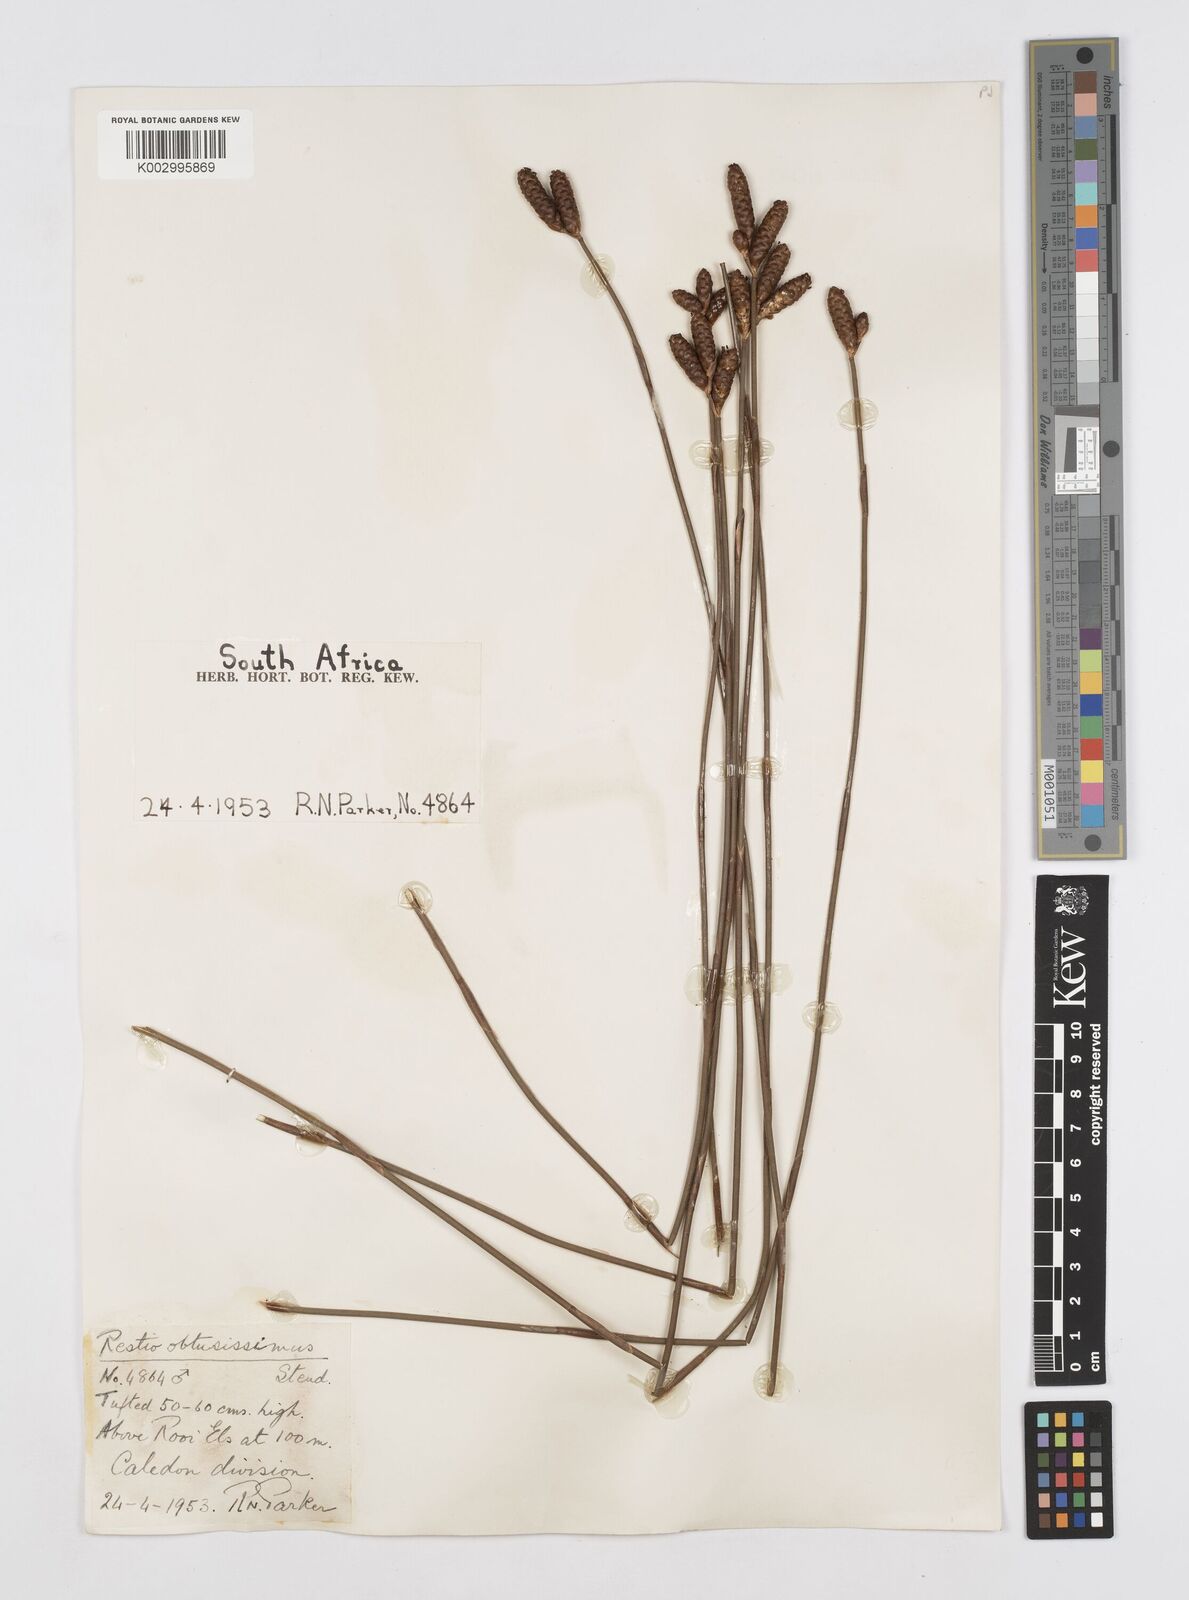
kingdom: Plantae
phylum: Tracheophyta
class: Liliopsida
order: Poales
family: Restionaceae
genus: Nevillea
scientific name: Nevillea obtusissimus
